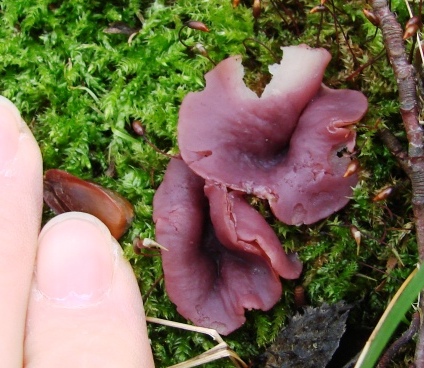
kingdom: Fungi
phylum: Ascomycota
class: Leotiomycetes
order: Helotiales
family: Gelatinodiscaceae
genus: Ascocoryne
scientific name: Ascocoryne cylichnium
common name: stor sejskive
